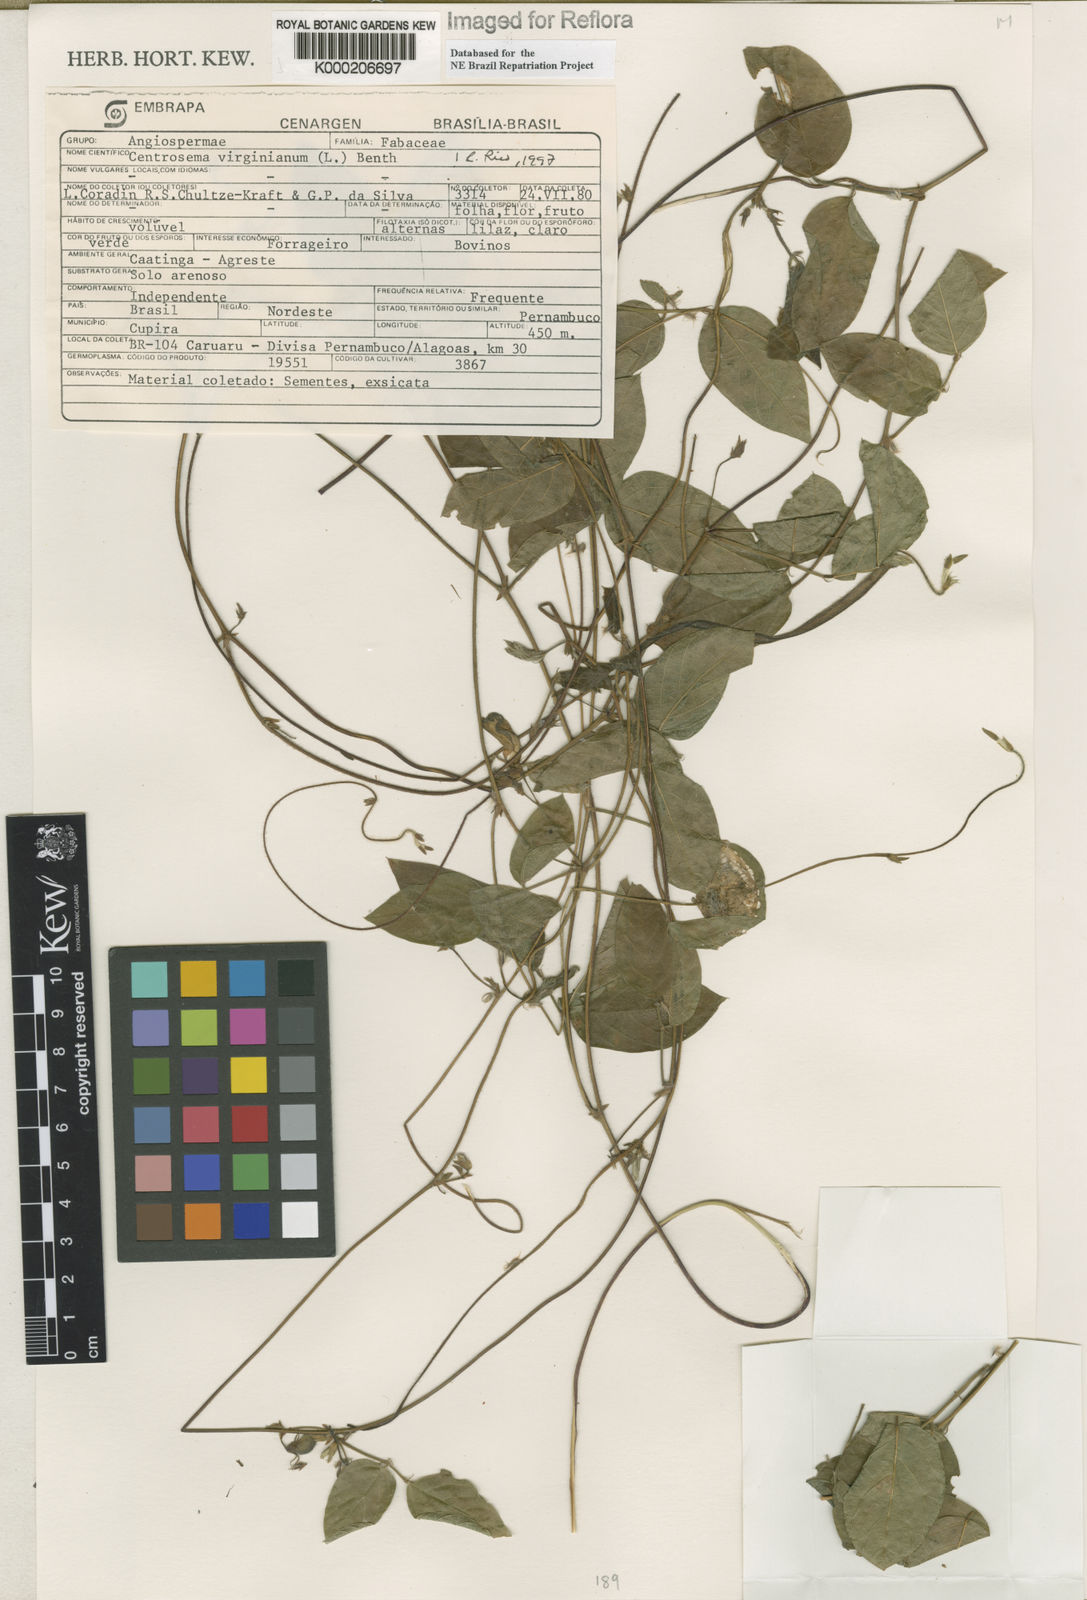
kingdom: Plantae
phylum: Tracheophyta
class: Magnoliopsida
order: Fabales
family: Fabaceae
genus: Centrosema
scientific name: Centrosema virginianum
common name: Butterfly-pea
